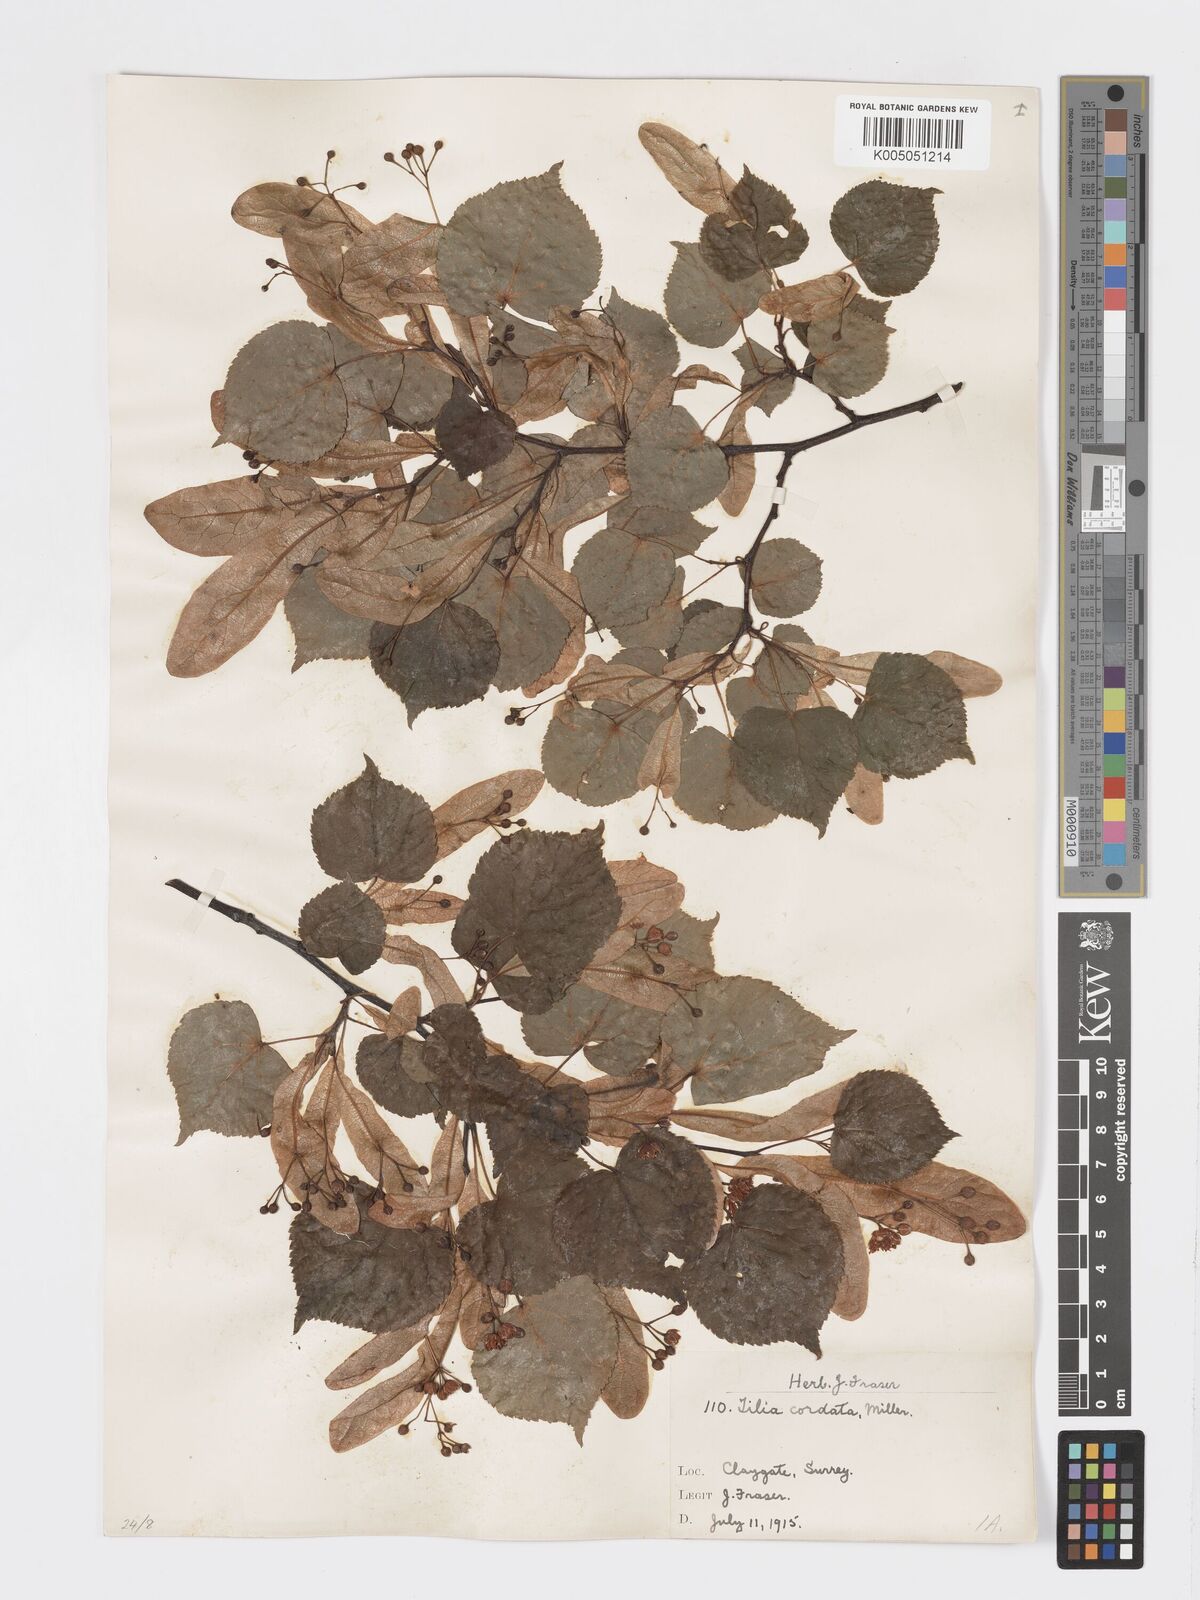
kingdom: Plantae
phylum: Tracheophyta
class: Magnoliopsida
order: Malvales
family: Malvaceae
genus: Tilia
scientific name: Tilia cordata
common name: Small-leaved lime
